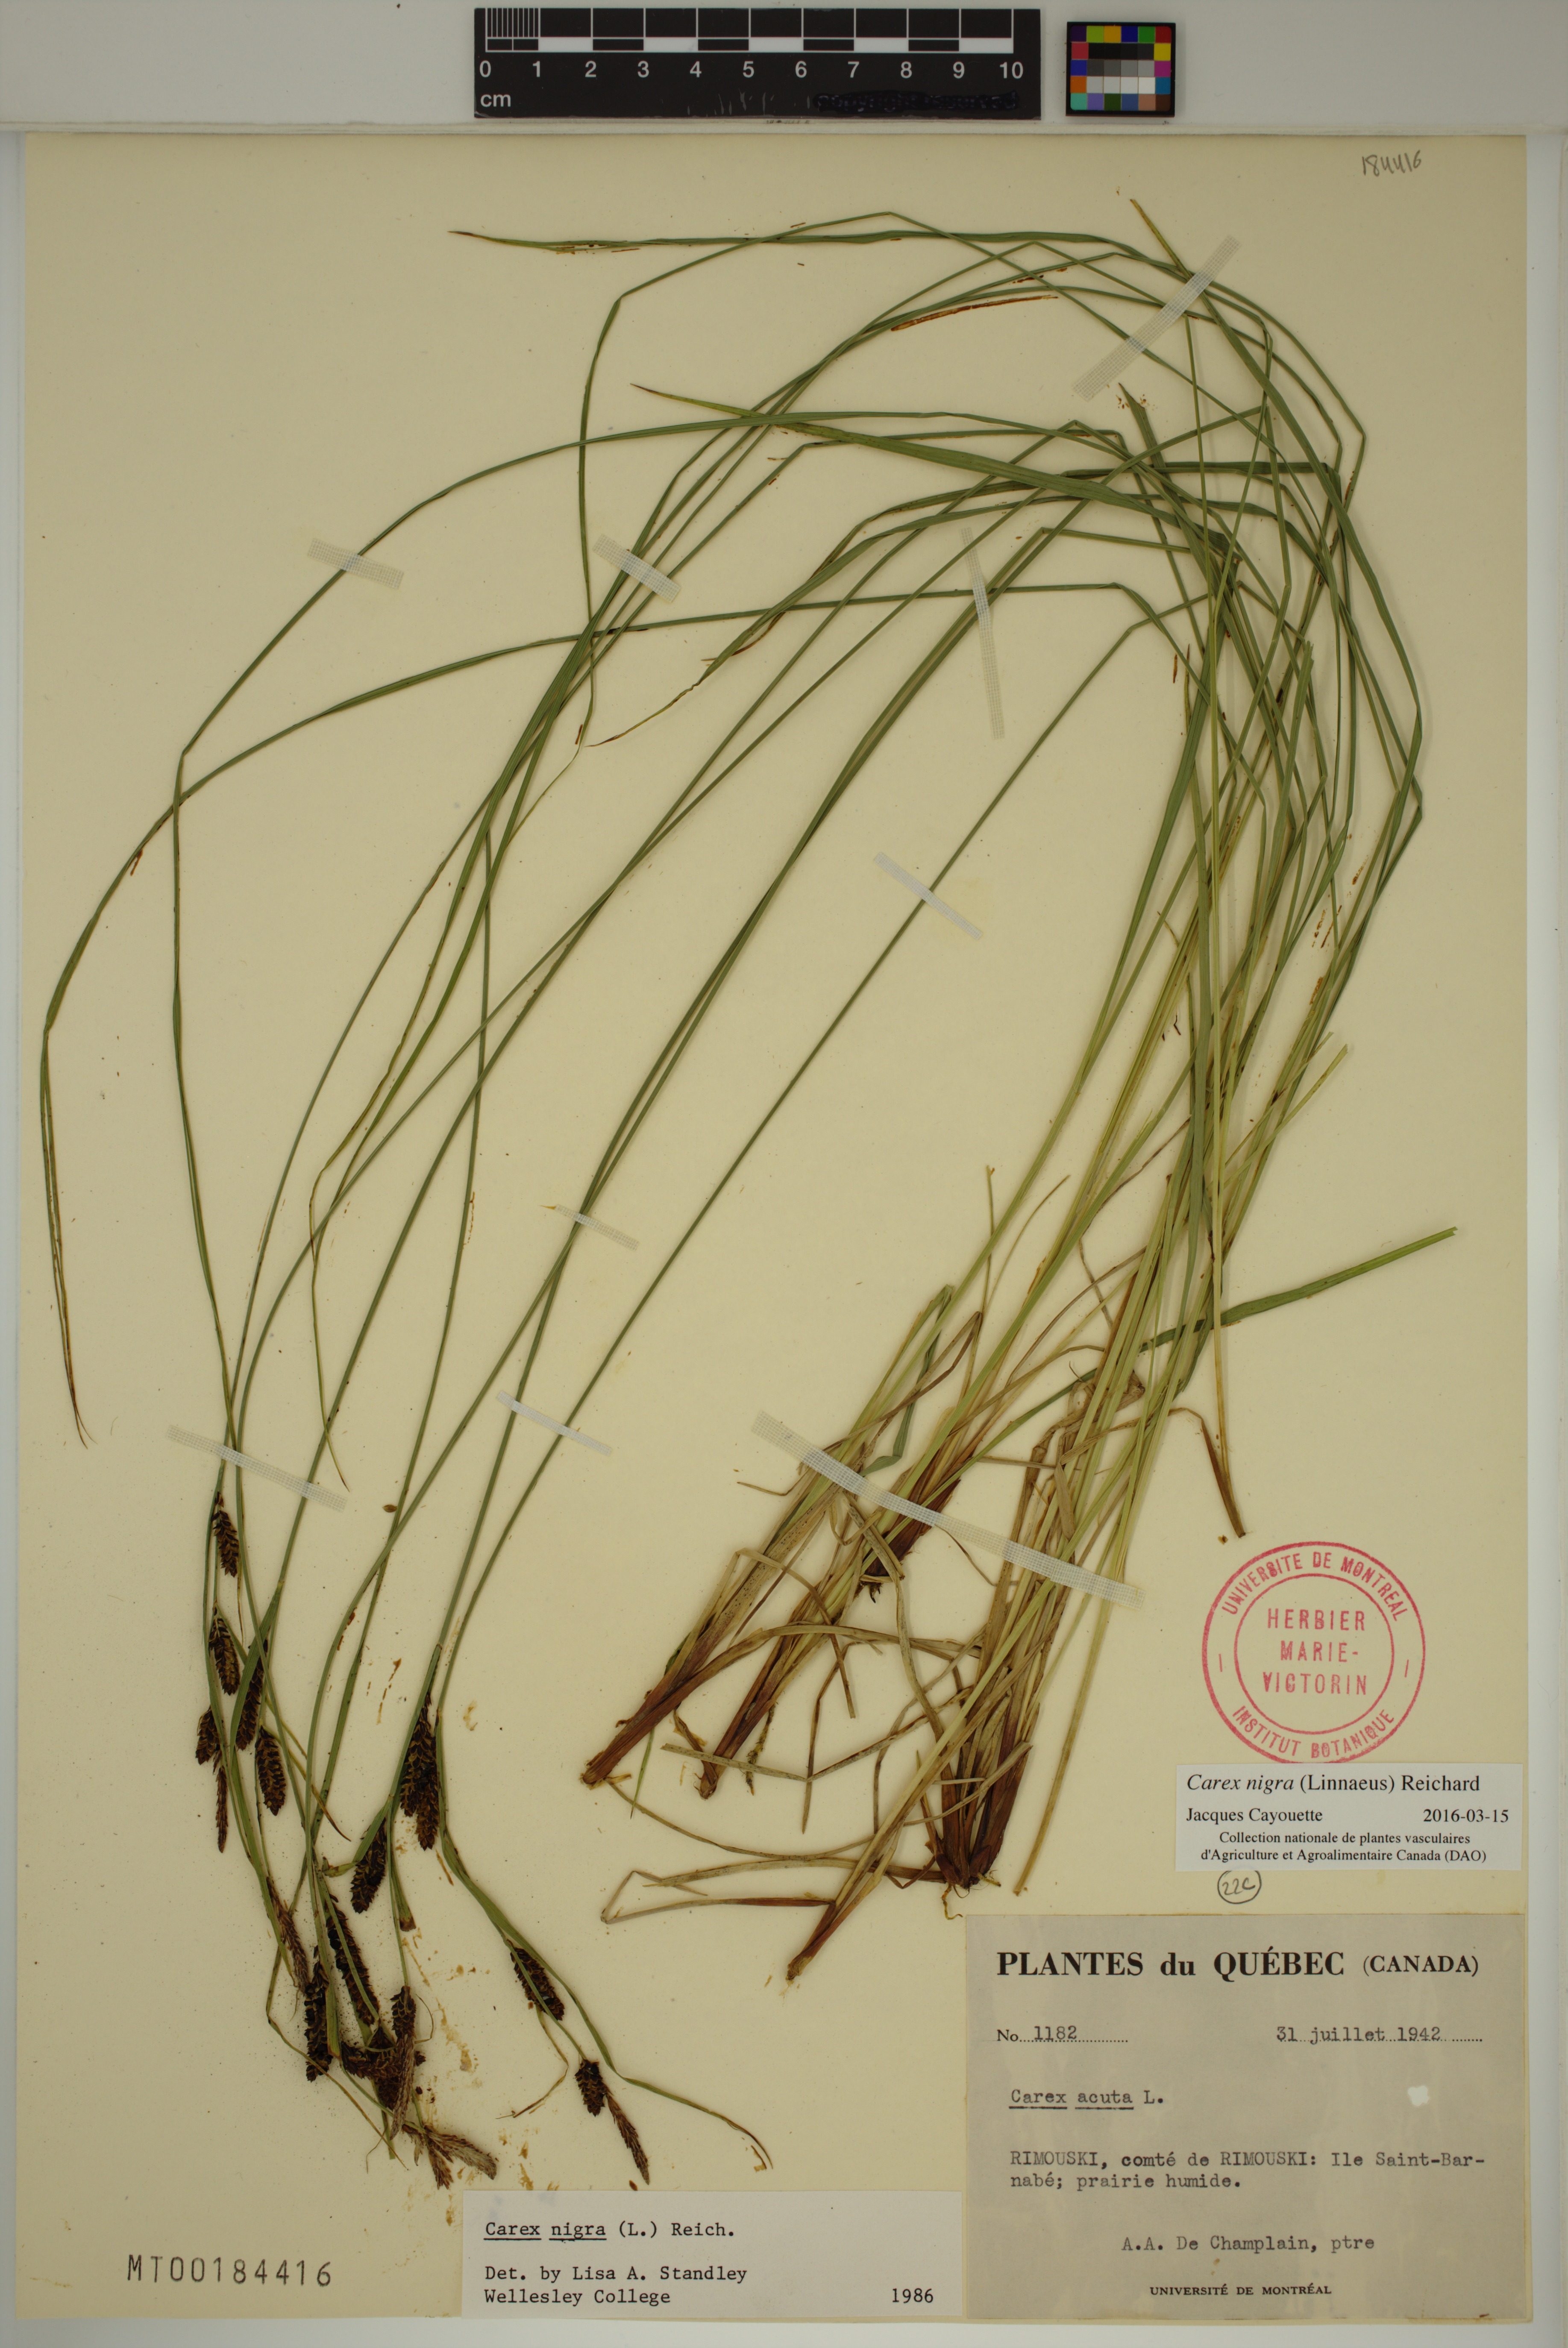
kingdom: Plantae
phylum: Tracheophyta
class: Liliopsida
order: Poales
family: Cyperaceae
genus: Carex
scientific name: Carex nigra
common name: Common sedge
